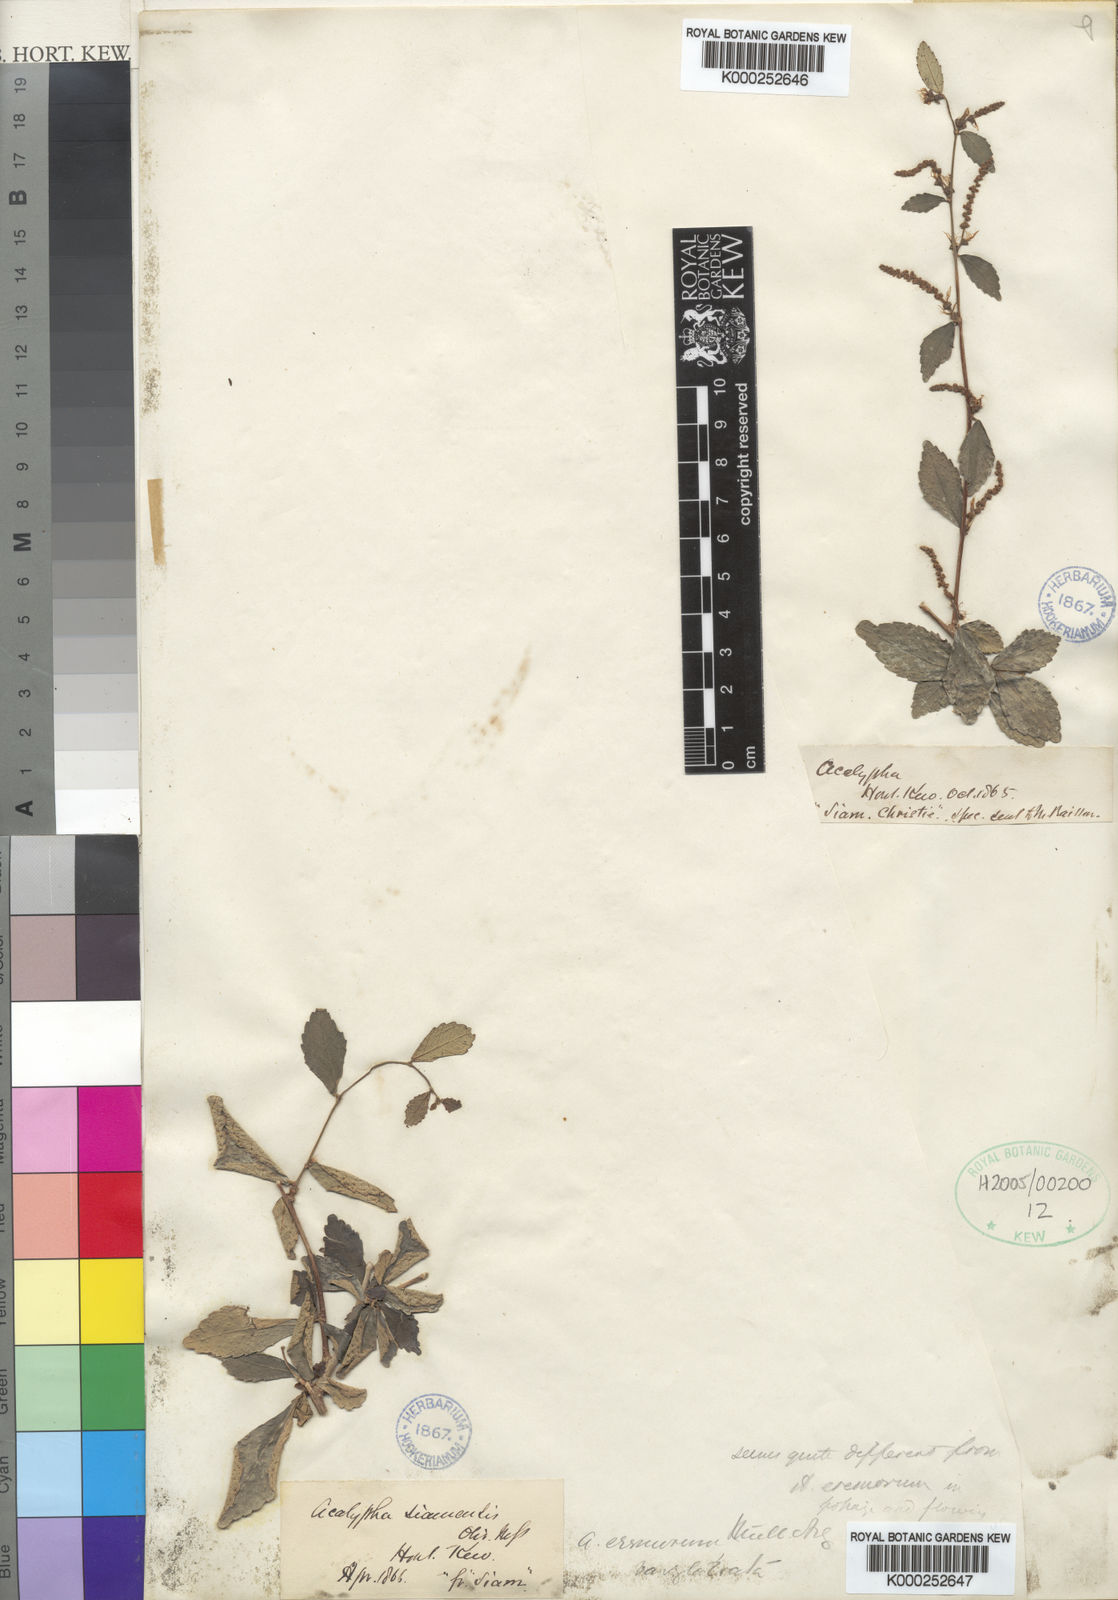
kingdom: Plantae
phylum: Tracheophyta
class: Magnoliopsida
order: Malpighiales
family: Euphorbiaceae
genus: Acalypha
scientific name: Acalypha kerrii
